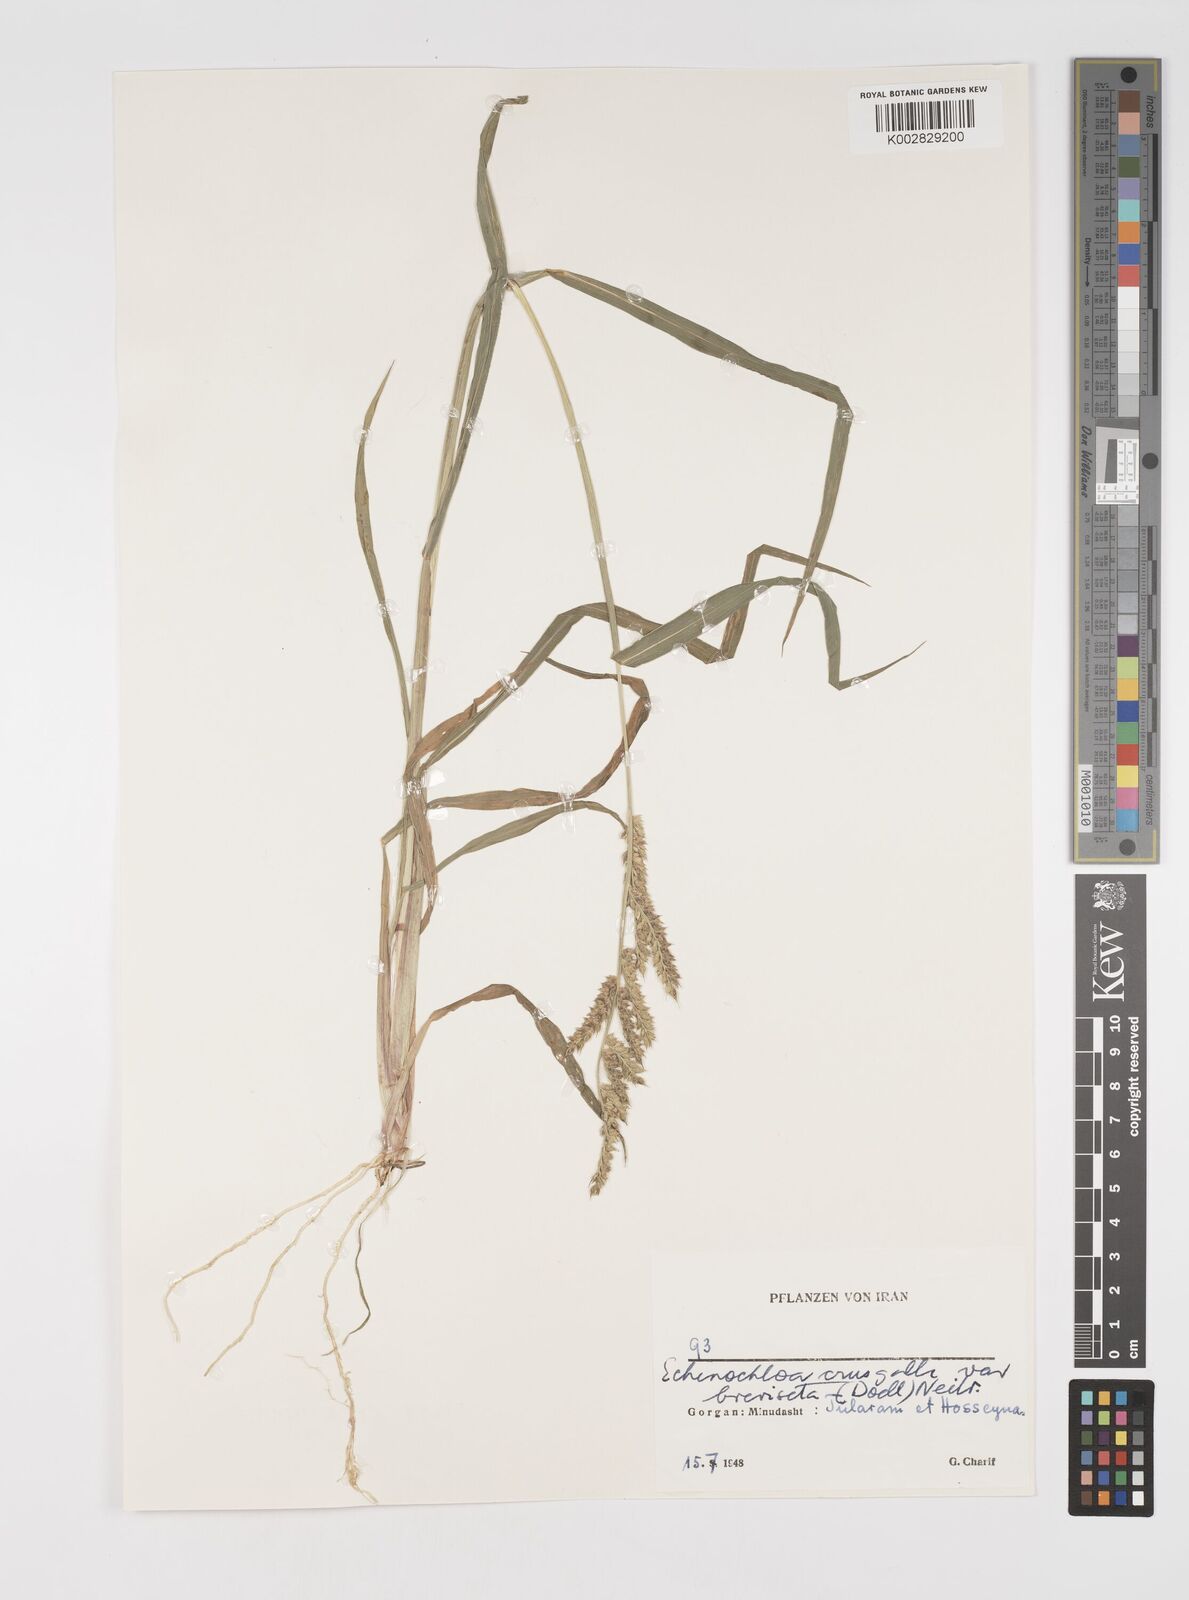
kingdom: Plantae
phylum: Tracheophyta
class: Liliopsida
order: Poales
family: Poaceae
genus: Echinochloa
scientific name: Echinochloa crus-galli
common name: Cockspur
